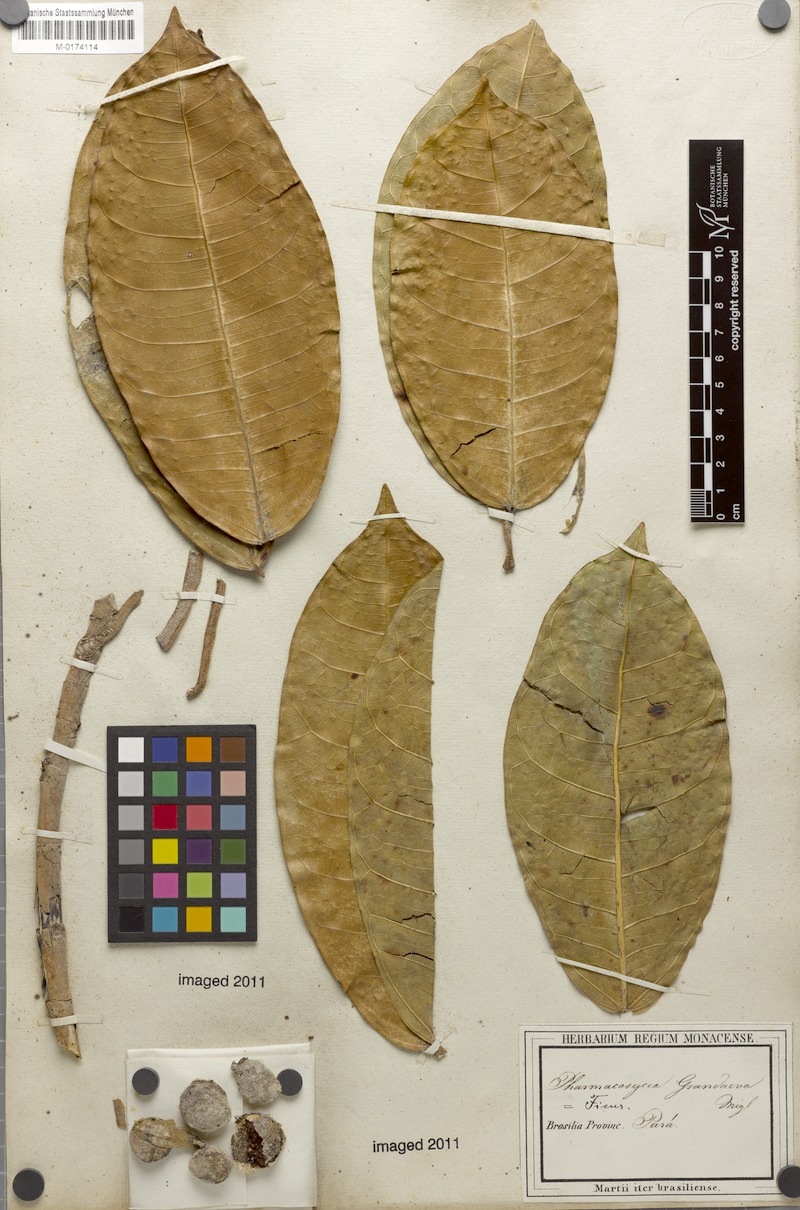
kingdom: Plantae
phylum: Tracheophyta
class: Magnoliopsida
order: Rosales
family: Moraceae
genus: Ficus
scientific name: Ficus maxima
